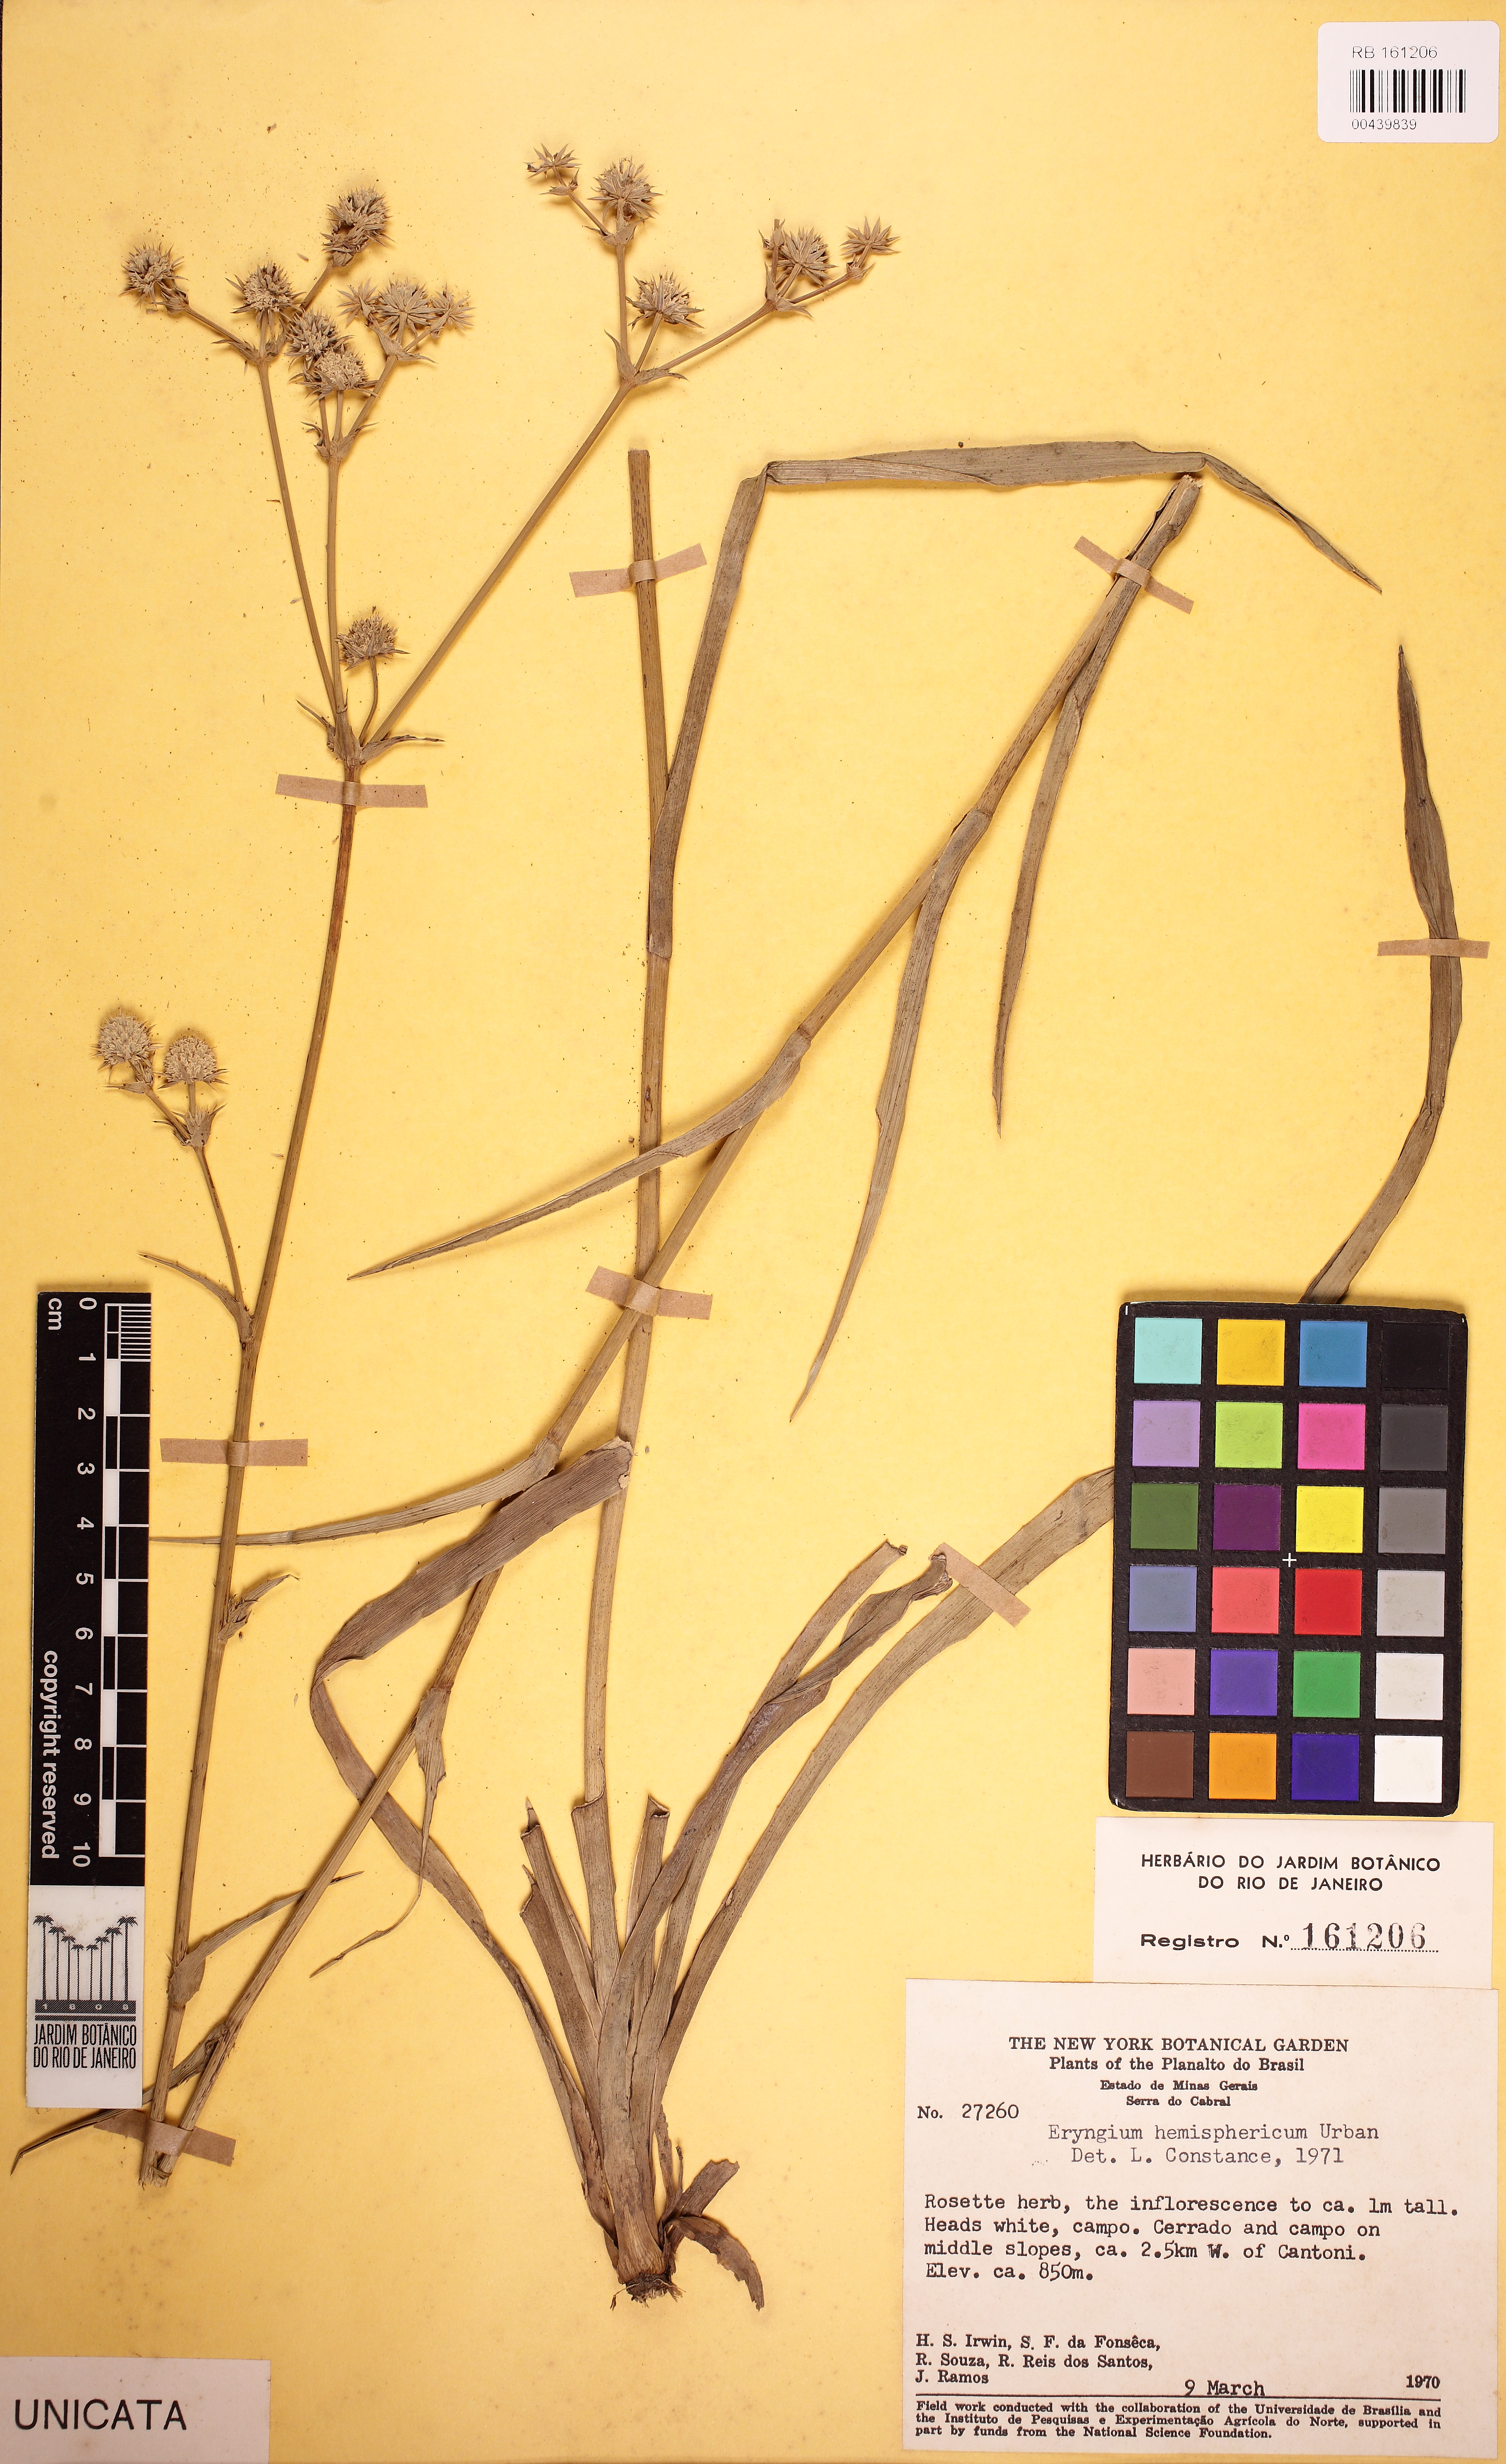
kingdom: Plantae
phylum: Tracheophyta
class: Magnoliopsida
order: Apiales
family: Apiaceae
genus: Eryngium
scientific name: Eryngium hemisphaericum
